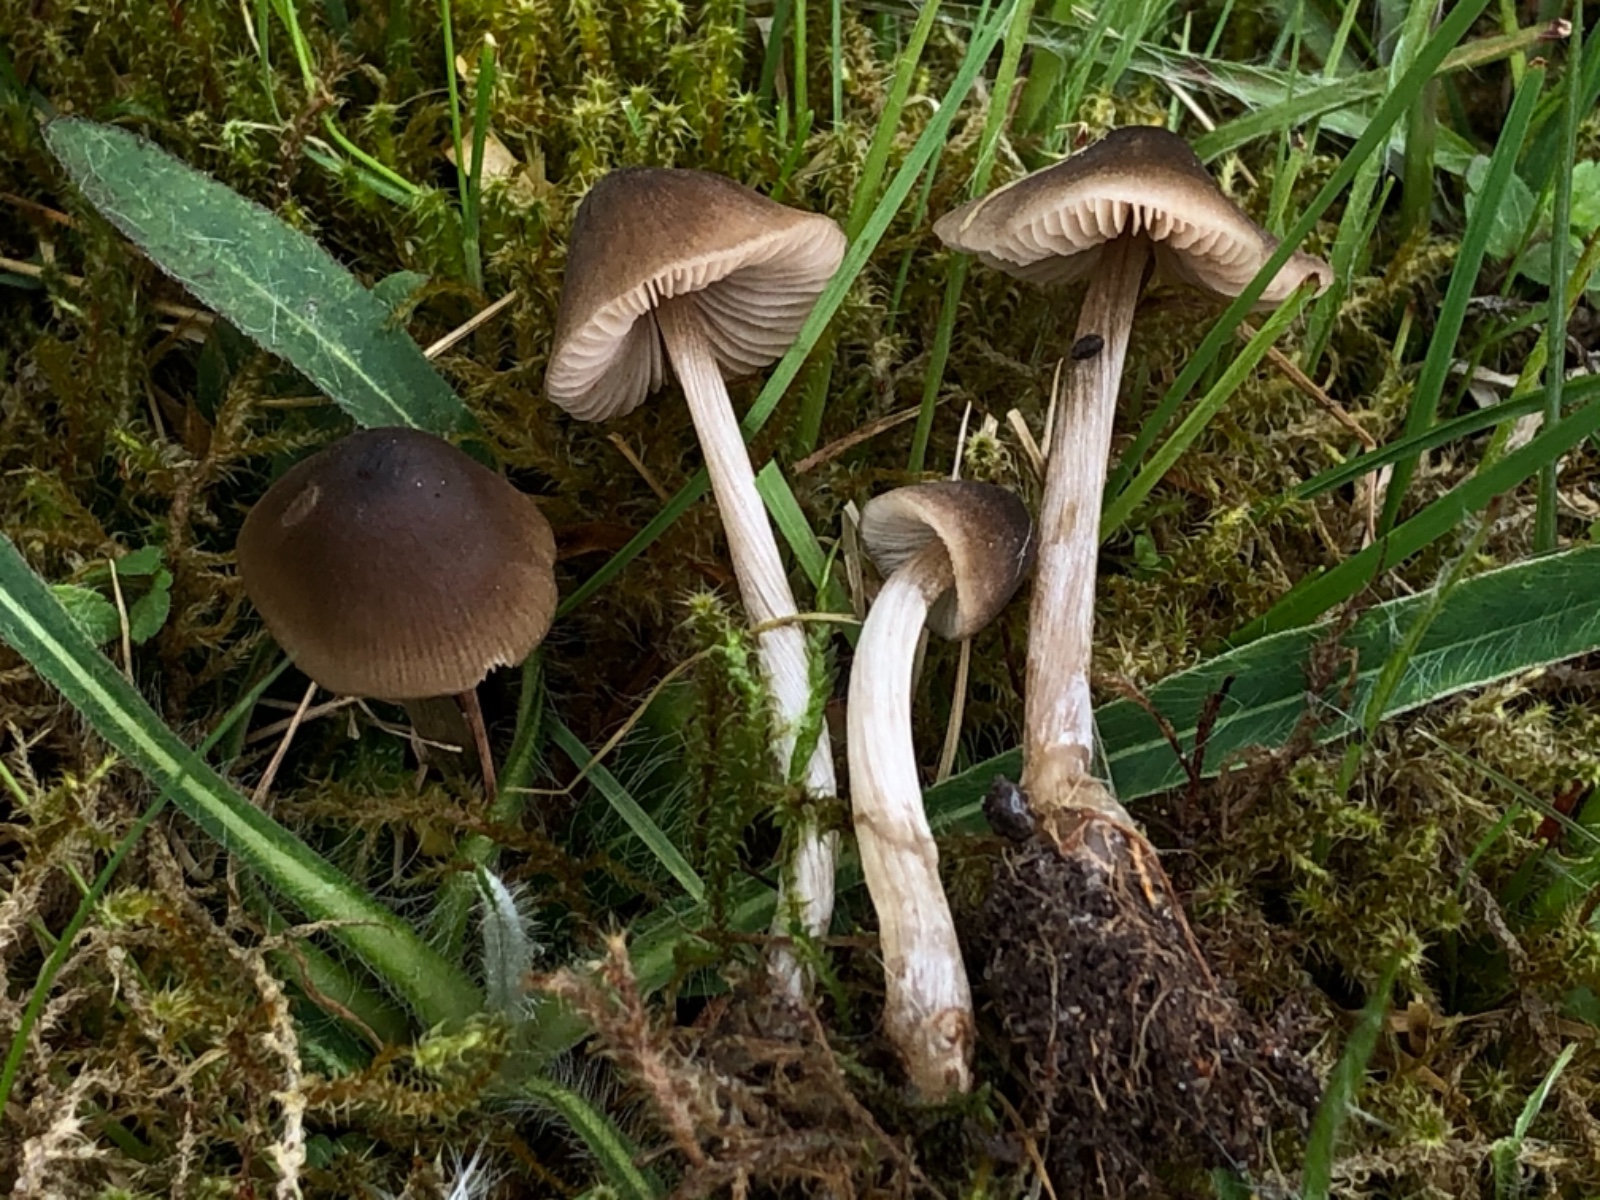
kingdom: Fungi
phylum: Basidiomycota
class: Agaricomycetes
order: Agaricales
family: Entolomataceae
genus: Entoloma
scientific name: Entoloma conferendum
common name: stjernesporet rødblad
